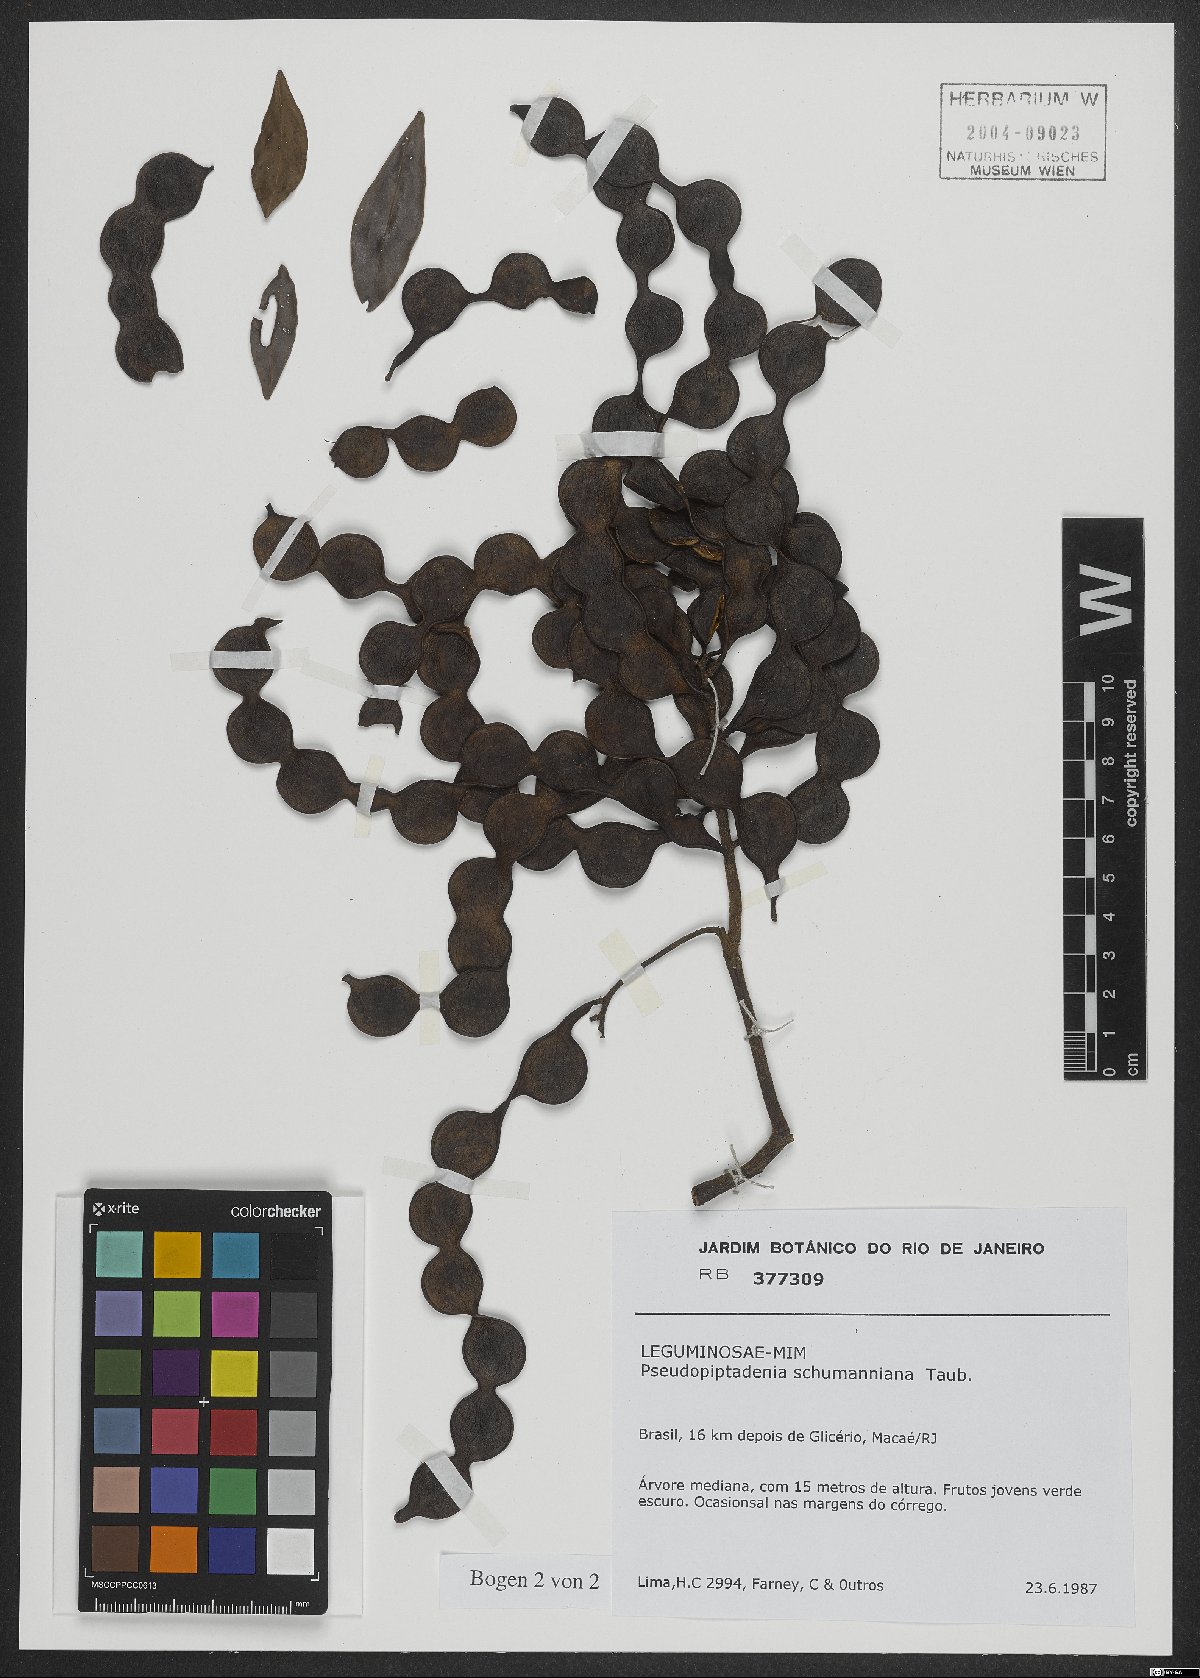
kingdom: Plantae
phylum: Tracheophyta
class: Magnoliopsida
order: Fabales
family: Fabaceae
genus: Pseudopiptadenia
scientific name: Pseudopiptadenia schumanniana
